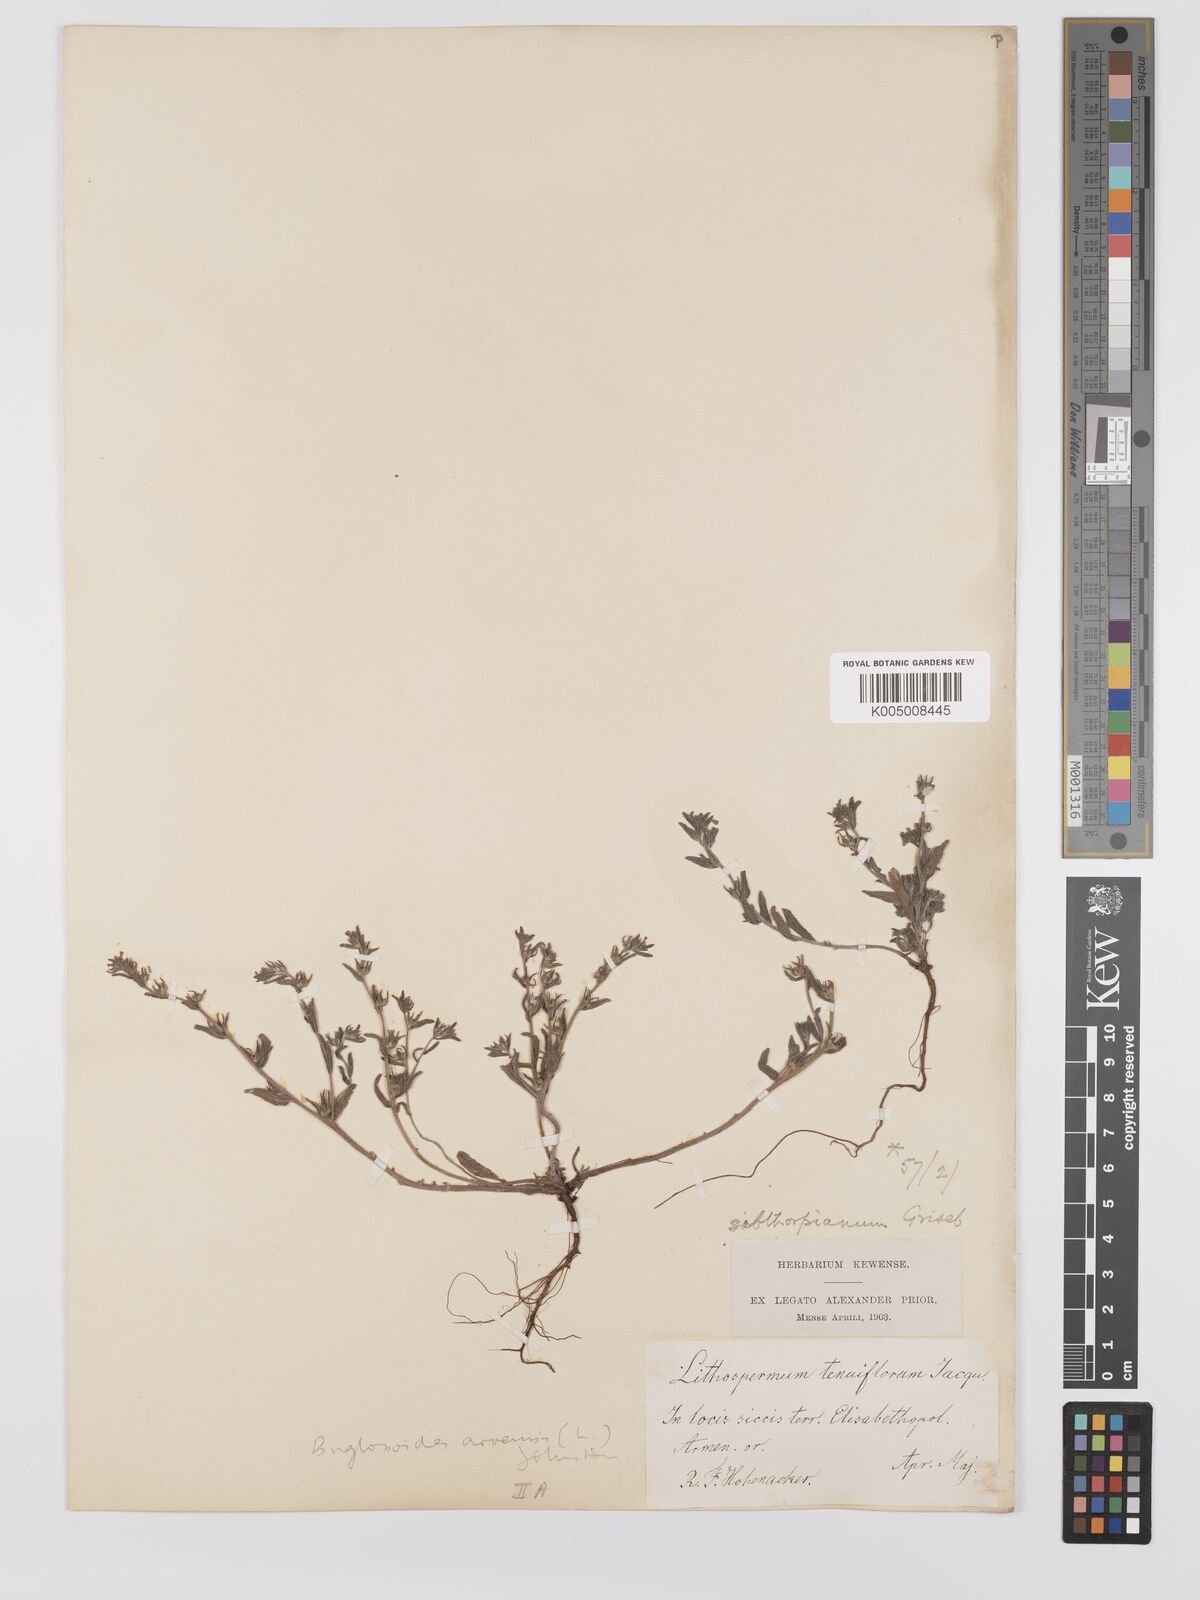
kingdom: Plantae
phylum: Tracheophyta
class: Magnoliopsida
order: Boraginales
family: Boraginaceae
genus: Buglossoides
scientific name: Buglossoides arvensis
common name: Corn gromwell
